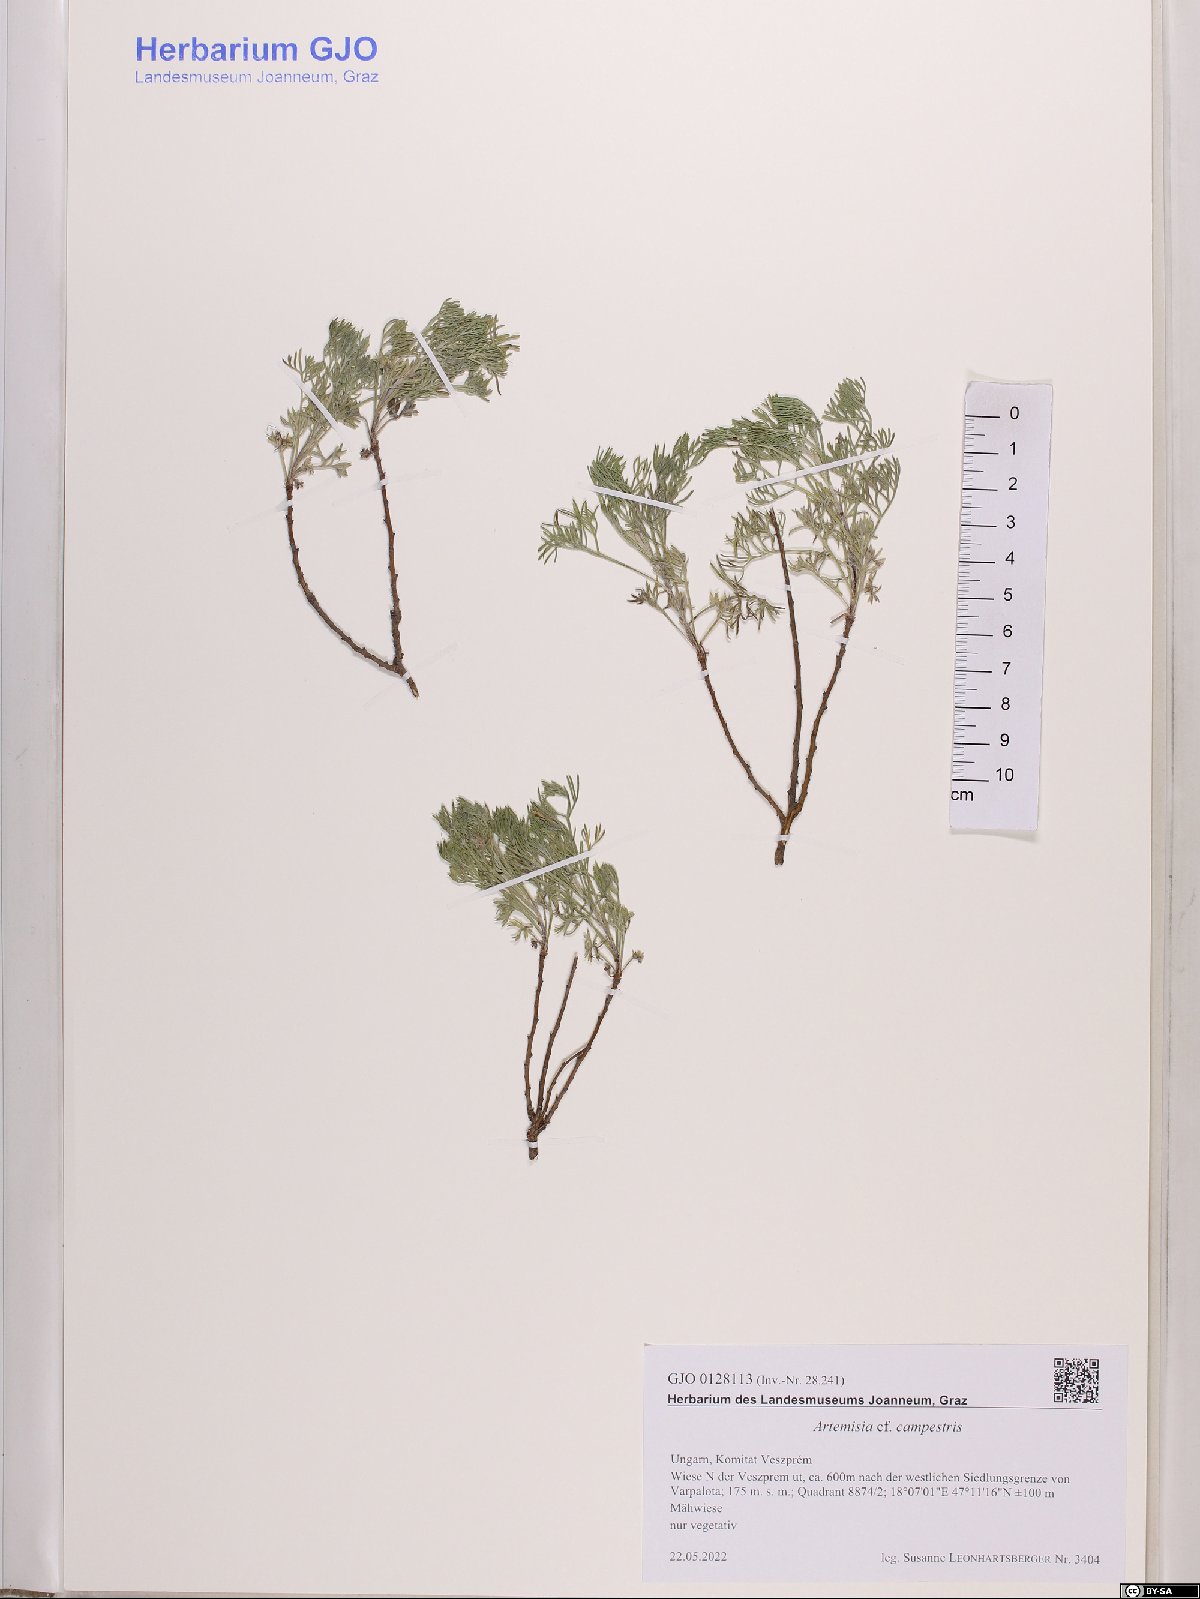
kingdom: Plantae
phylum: Tracheophyta
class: Magnoliopsida
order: Asterales
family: Asteraceae
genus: Artemisia
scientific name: Artemisia campestris
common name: Field wormwood
